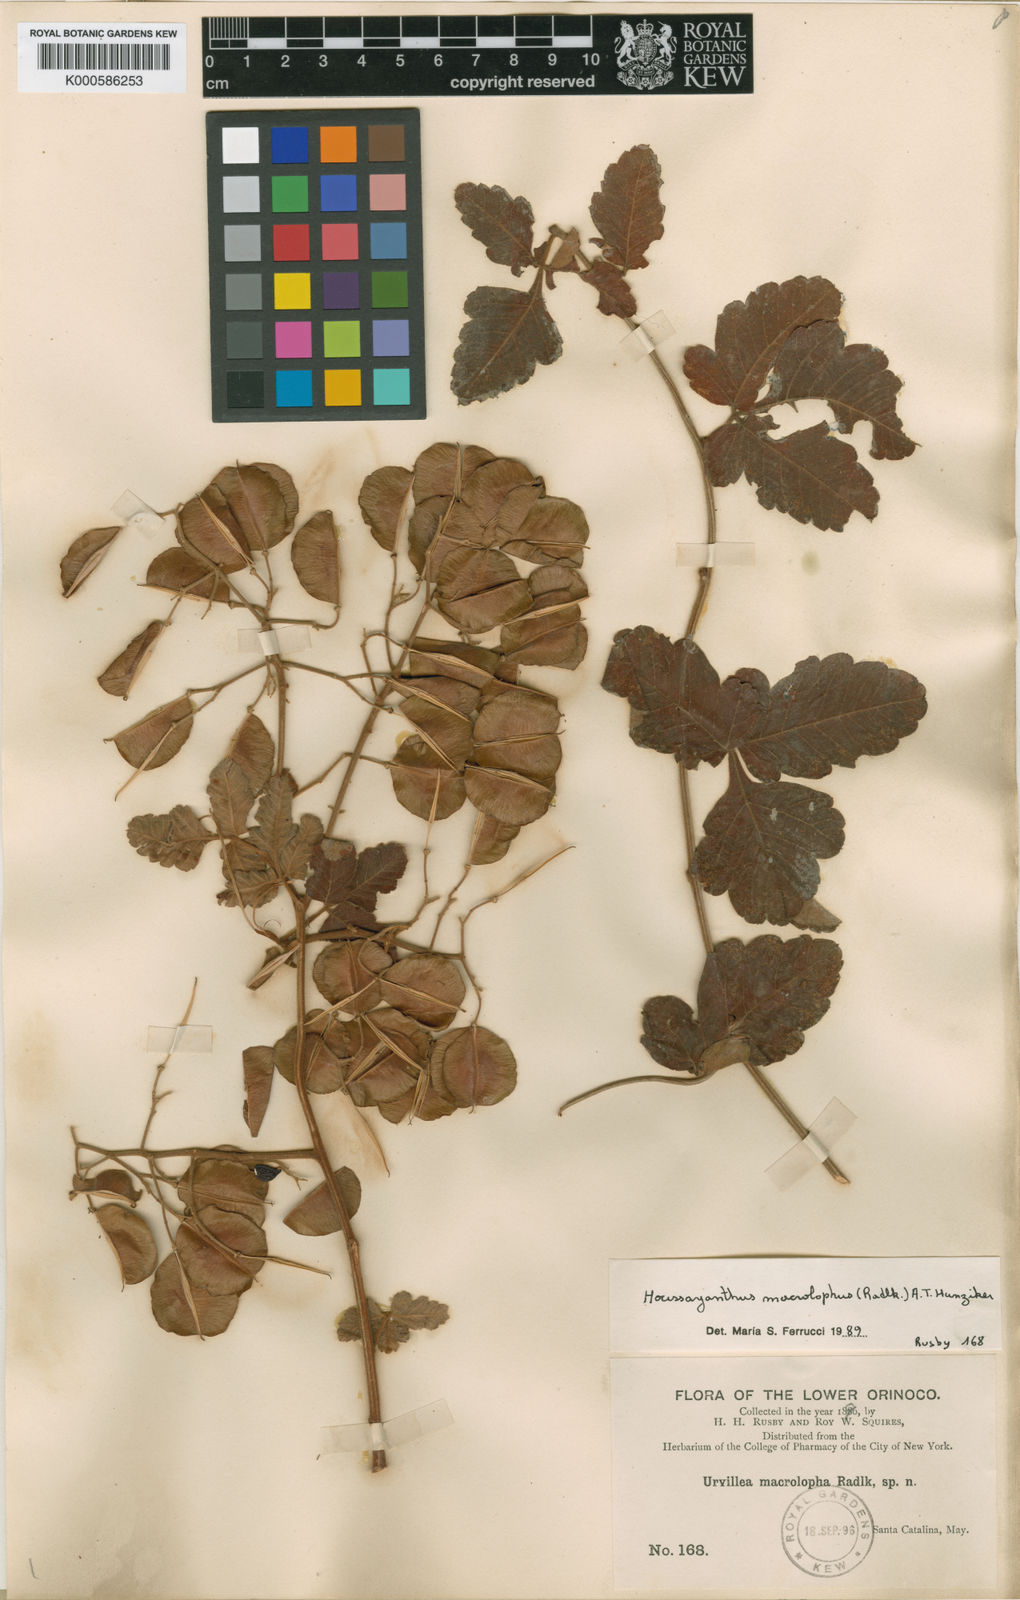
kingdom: Plantae
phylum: Tracheophyta
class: Magnoliopsida
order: Sapindales
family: Sapindaceae
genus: Serjania
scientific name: Serjania macrolopha
